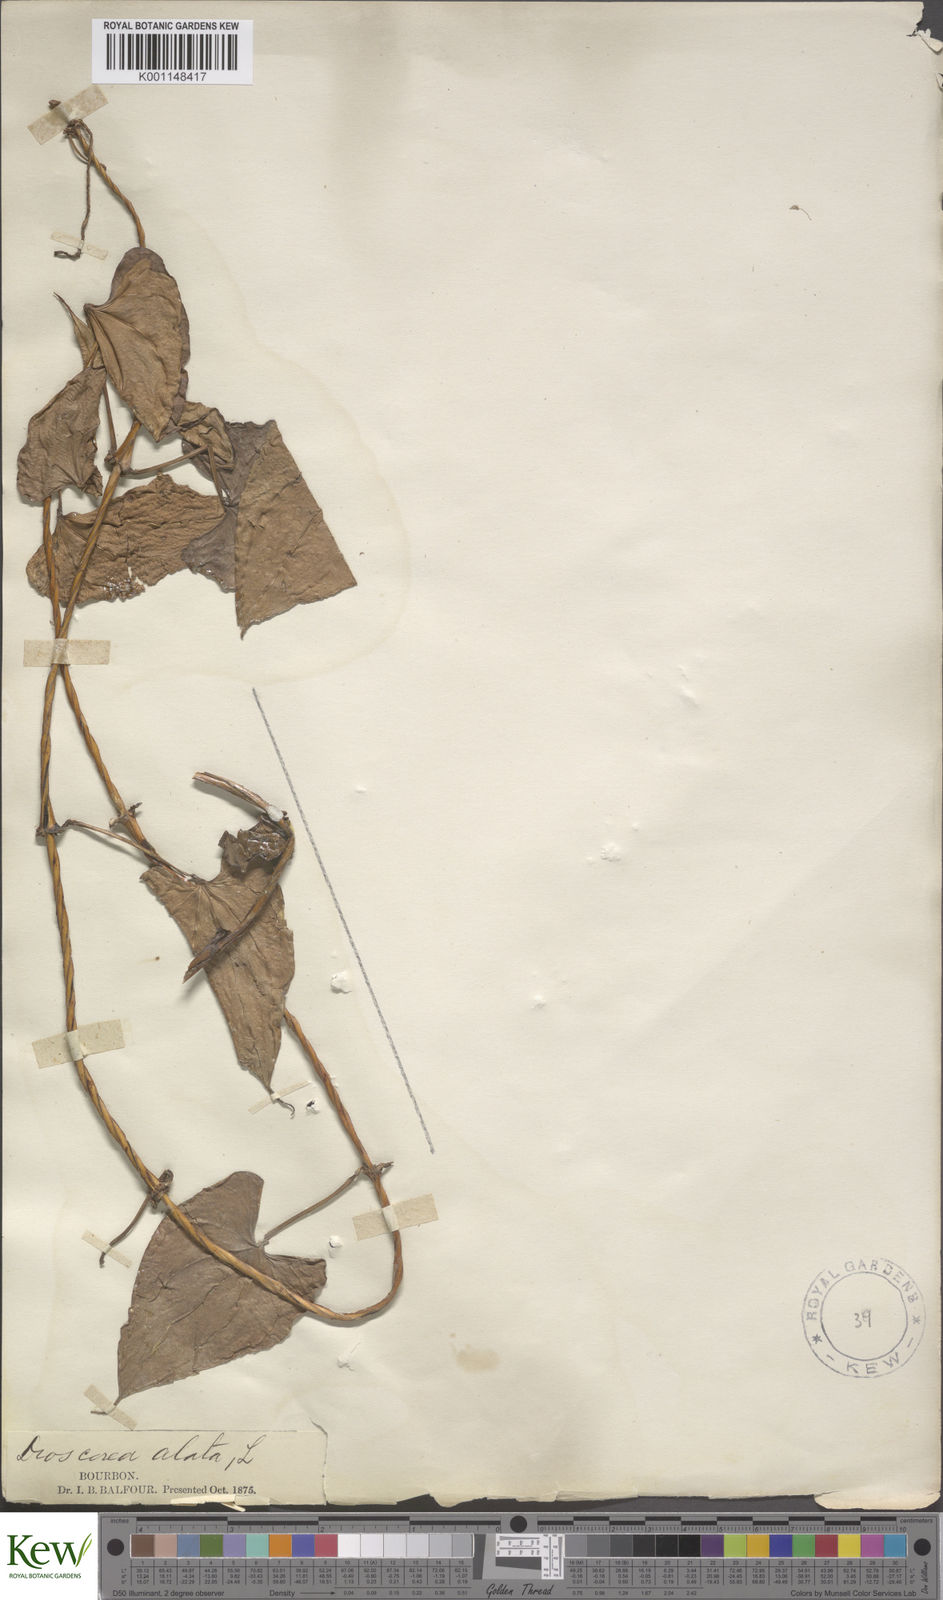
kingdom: Plantae
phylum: Tracheophyta
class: Liliopsida
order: Dioscoreales
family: Dioscoreaceae
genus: Dioscorea
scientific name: Dioscorea alata
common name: Water yam
